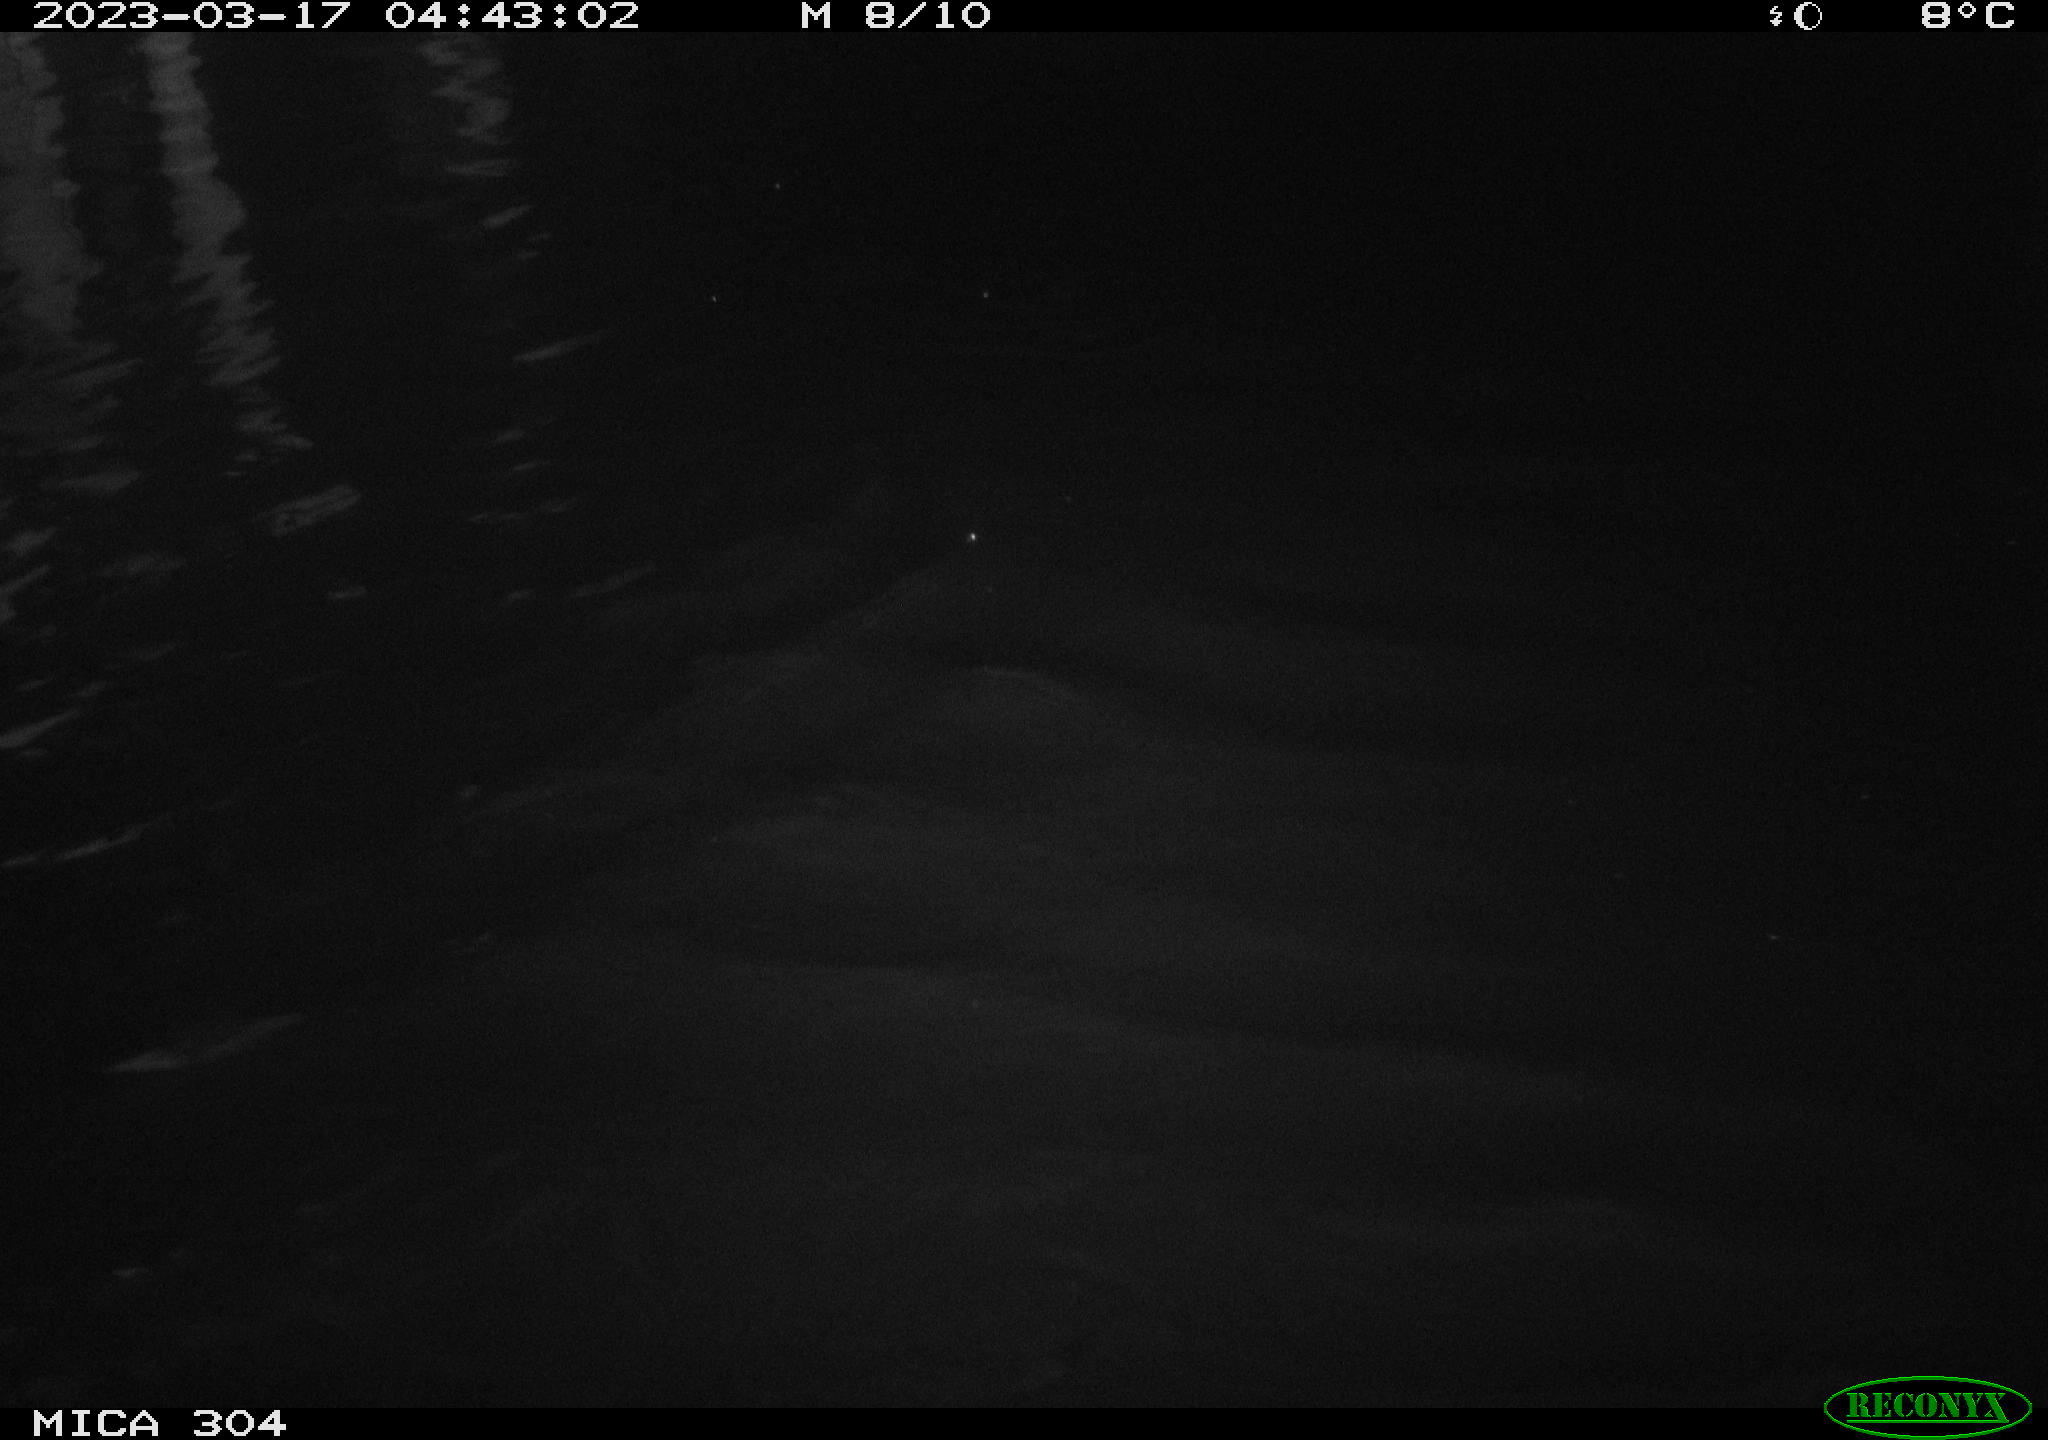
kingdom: Animalia
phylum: Chordata
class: Mammalia
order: Rodentia
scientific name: Rodentia
